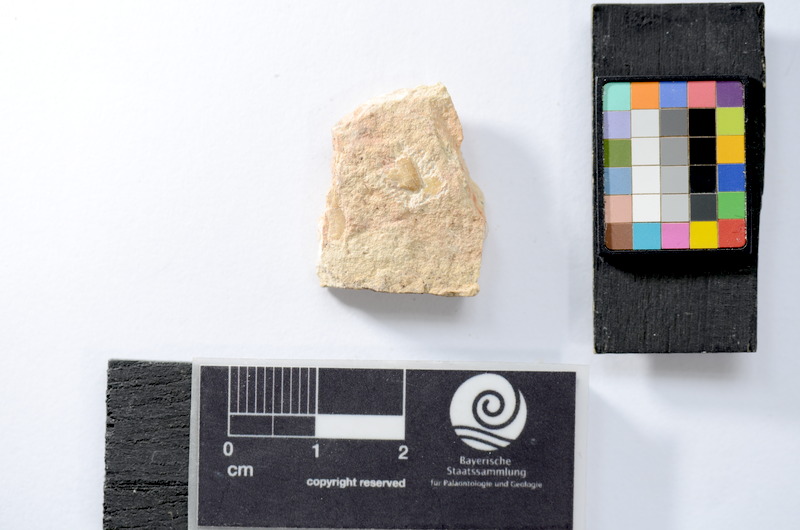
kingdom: Animalia
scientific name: Animalia
